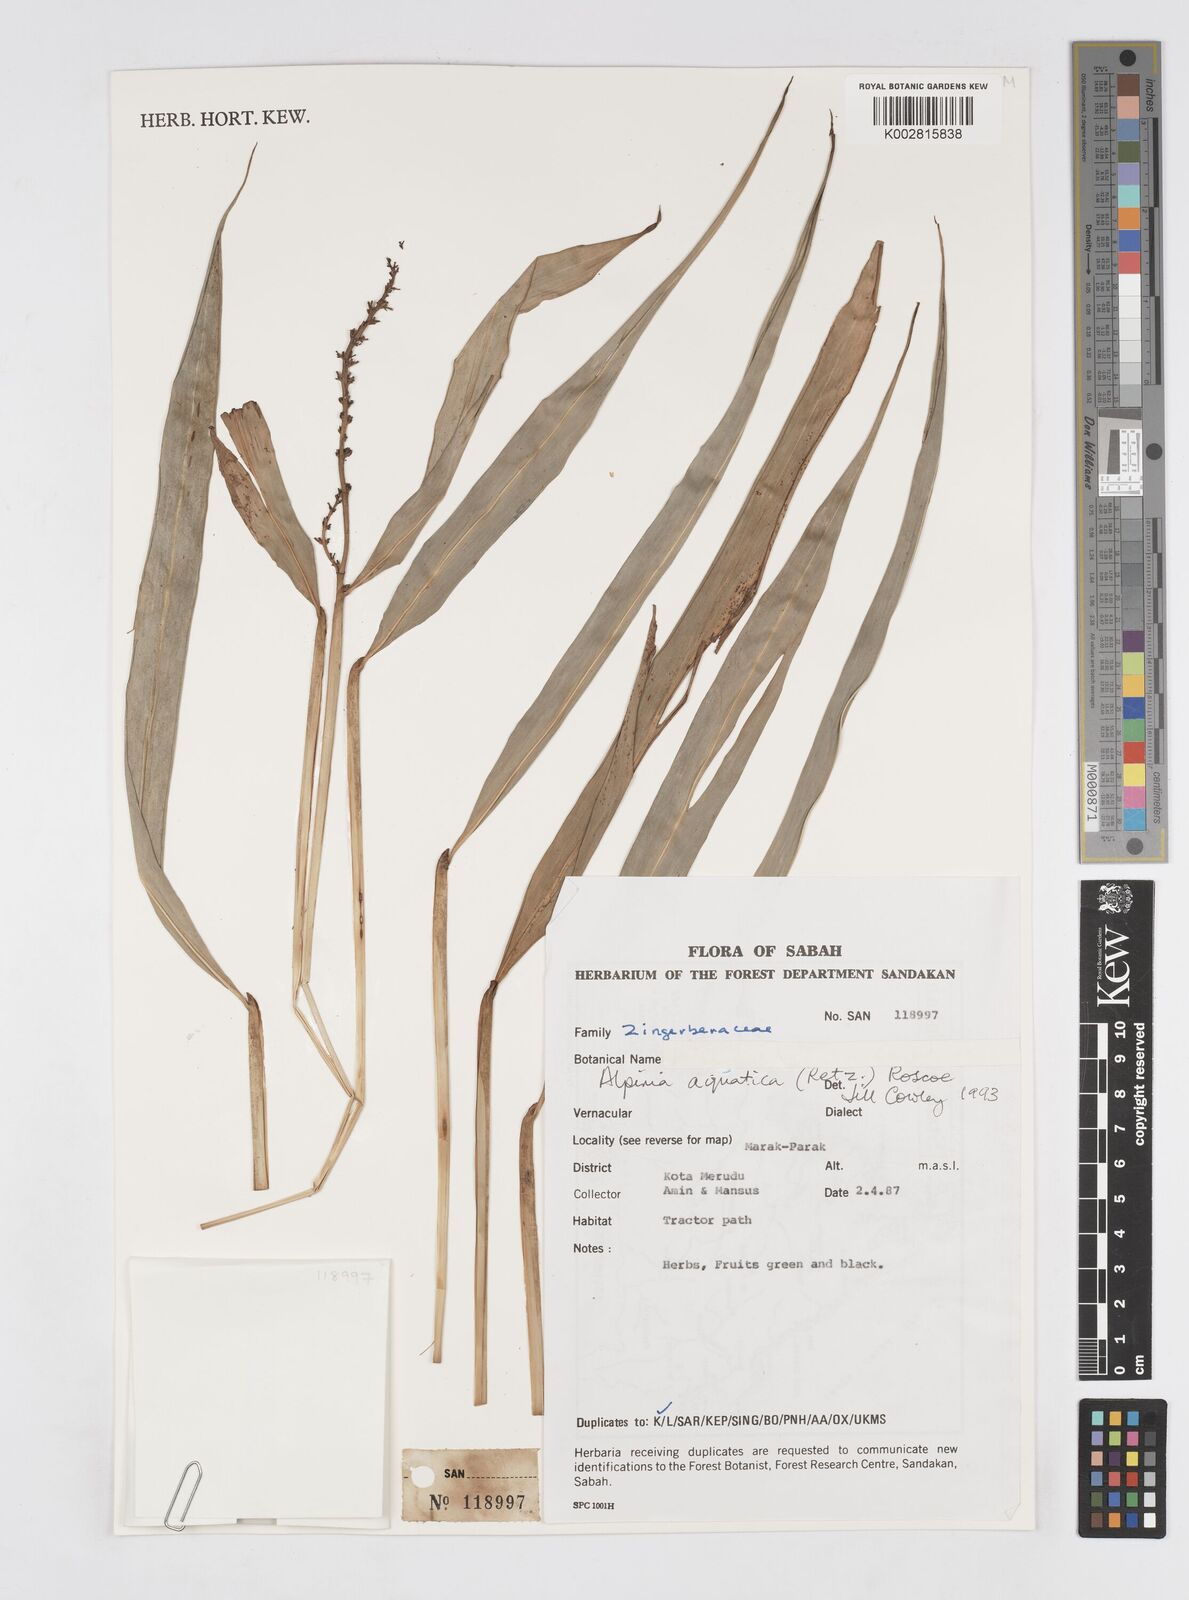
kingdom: Plantae
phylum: Tracheophyta
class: Liliopsida
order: Zingiberales
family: Zingiberaceae
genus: Alpinia
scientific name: Alpinia aquatica
